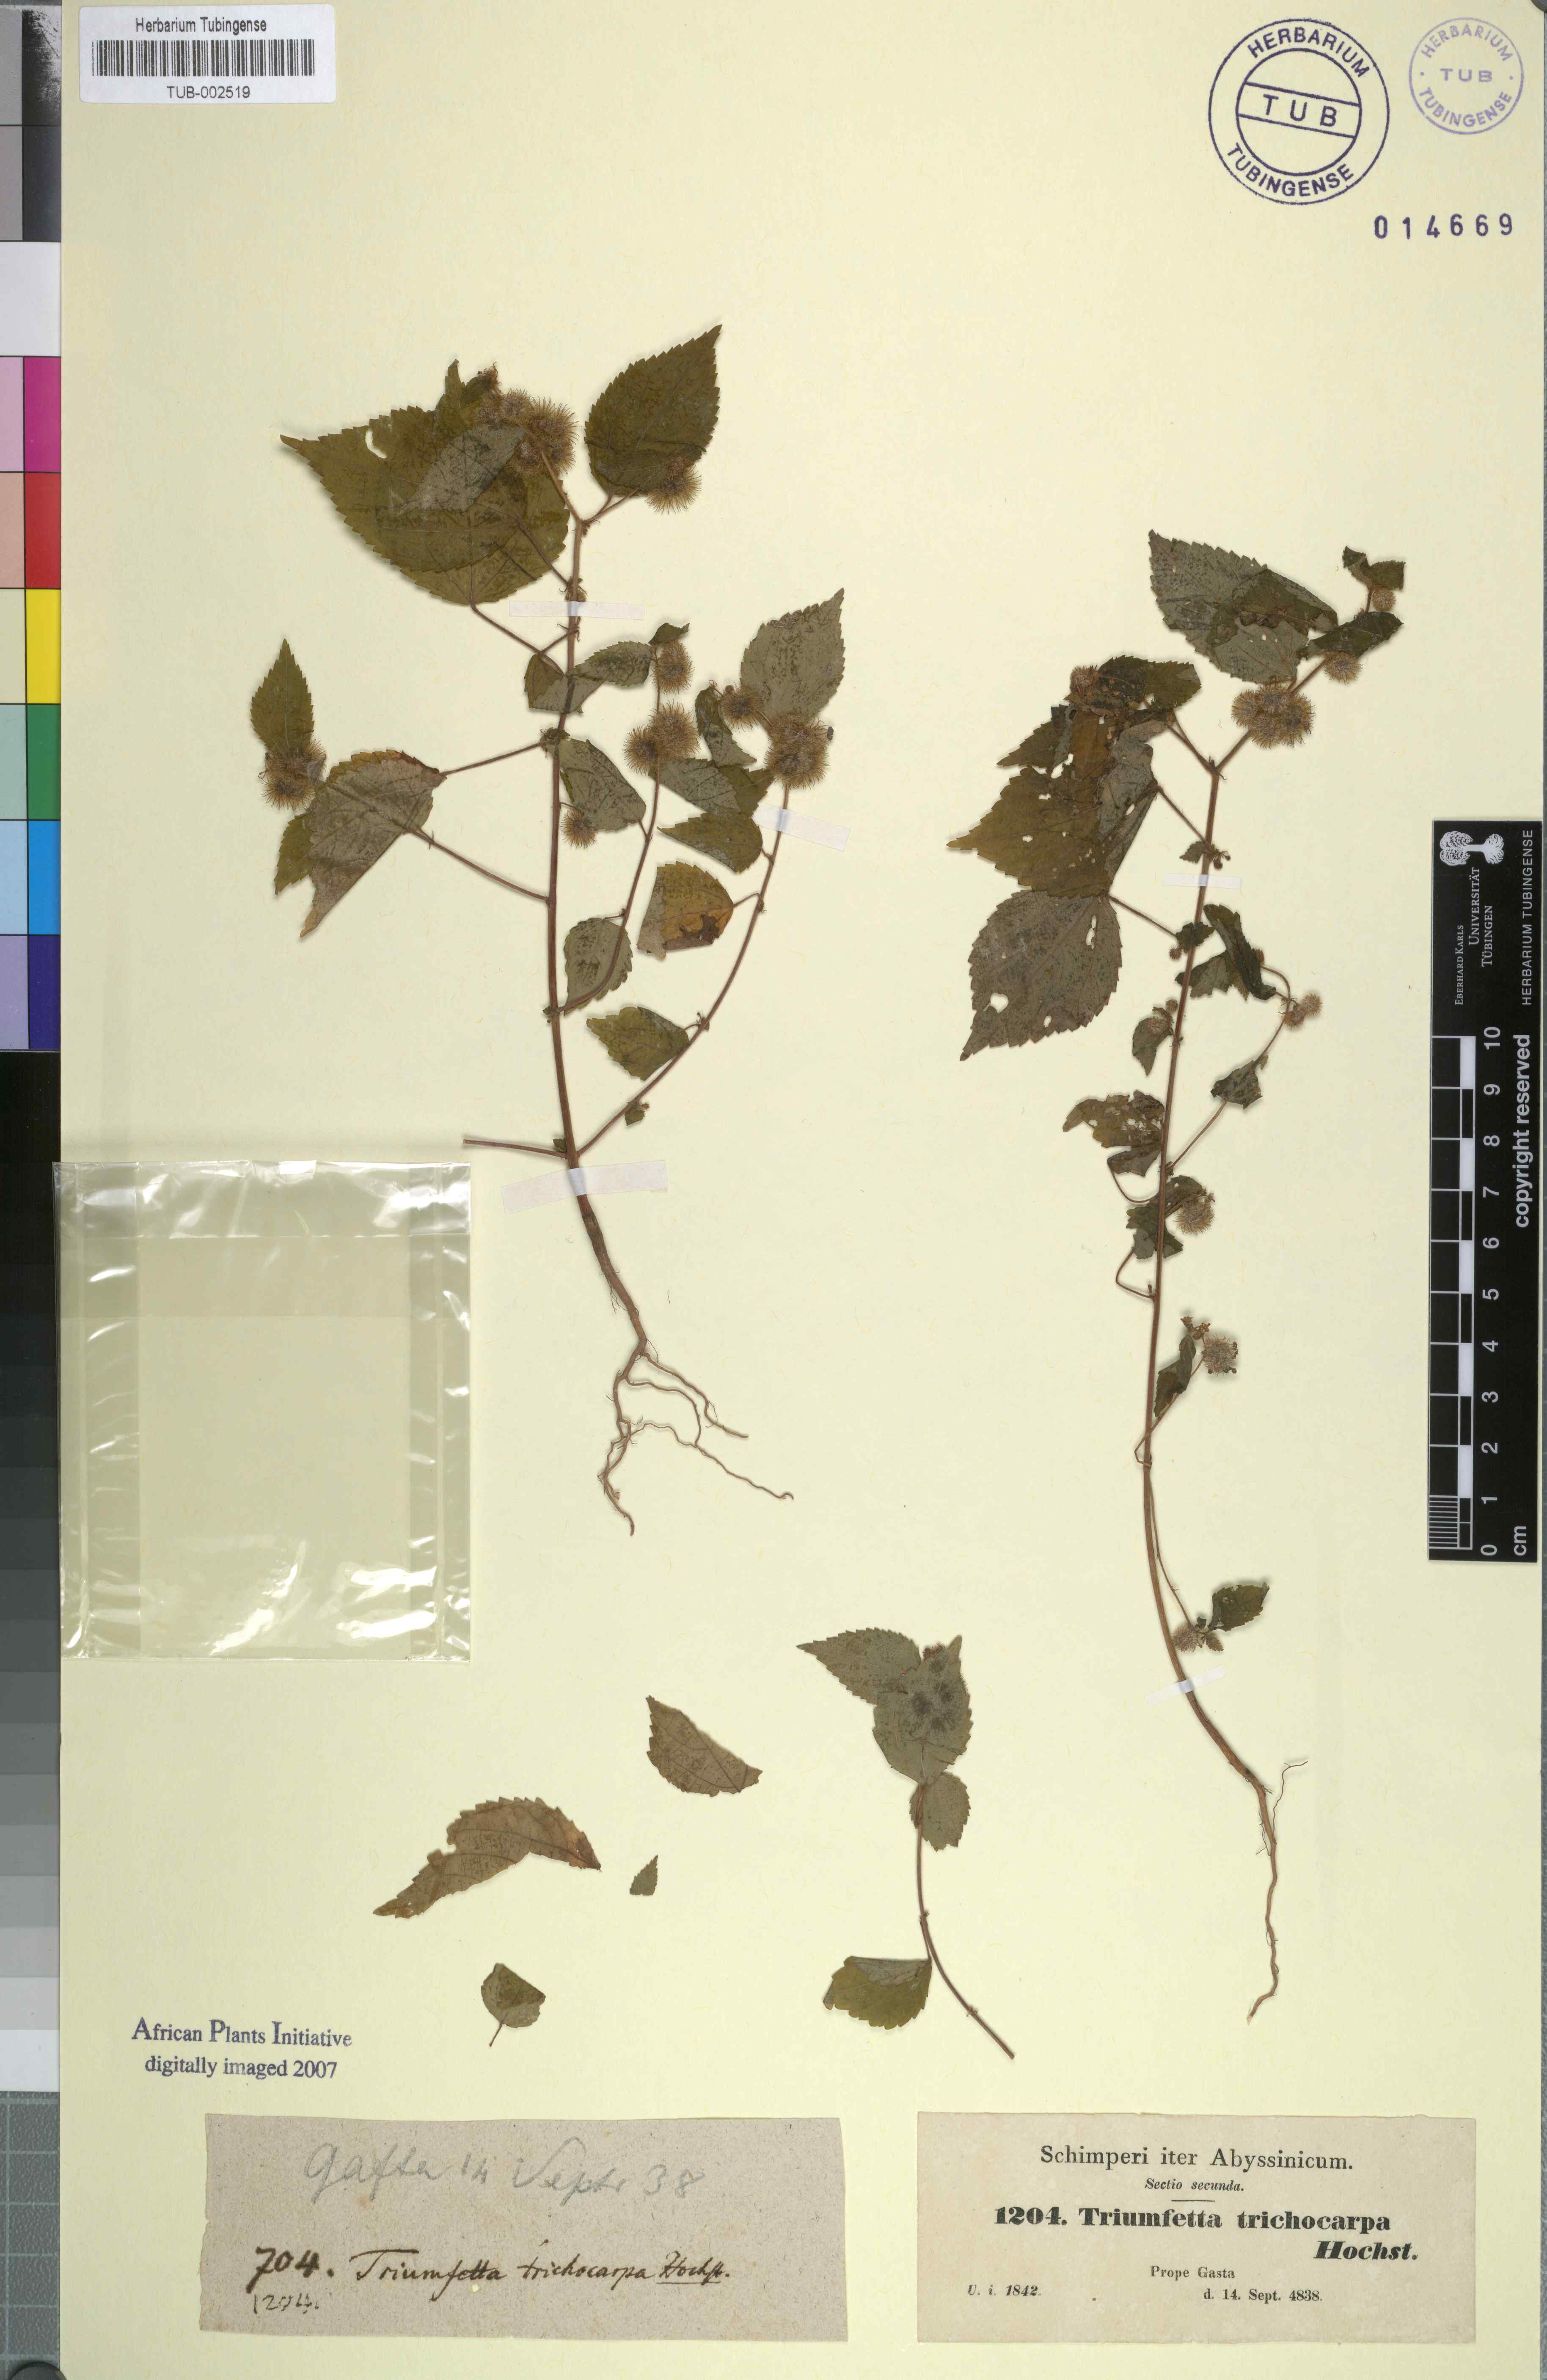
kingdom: Plantae
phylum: Tracheophyta
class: Magnoliopsida
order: Malvales
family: Malvaceae
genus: Triumfetta
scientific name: Triumfetta trichocarpa
